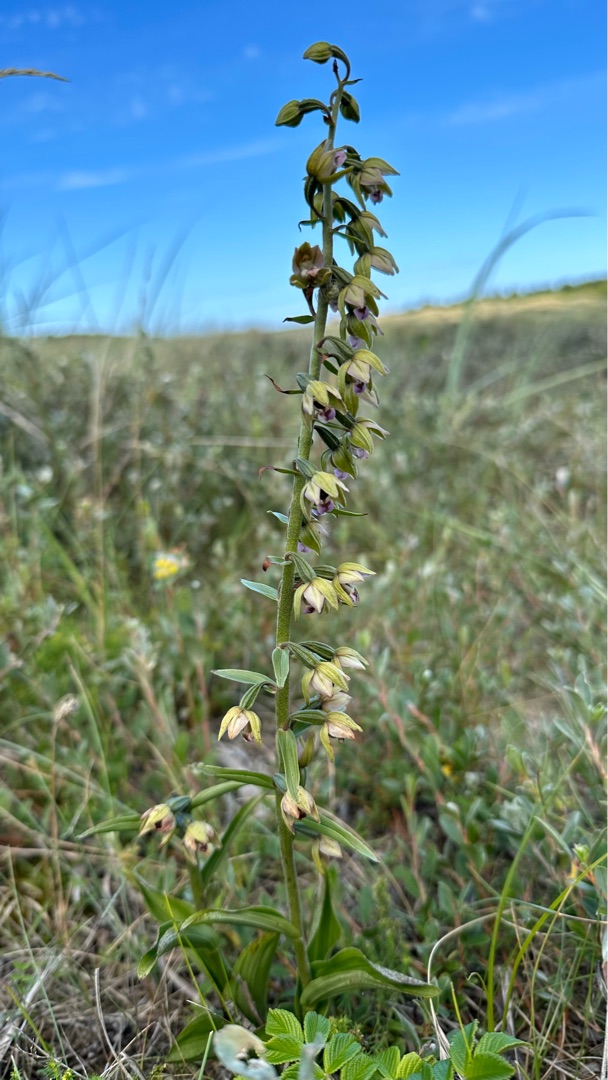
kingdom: Plantae
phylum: Tracheophyta
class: Liliopsida
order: Asparagales
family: Orchidaceae
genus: Epipactis
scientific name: Epipactis helleborine
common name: Hollandsk hullæbe
